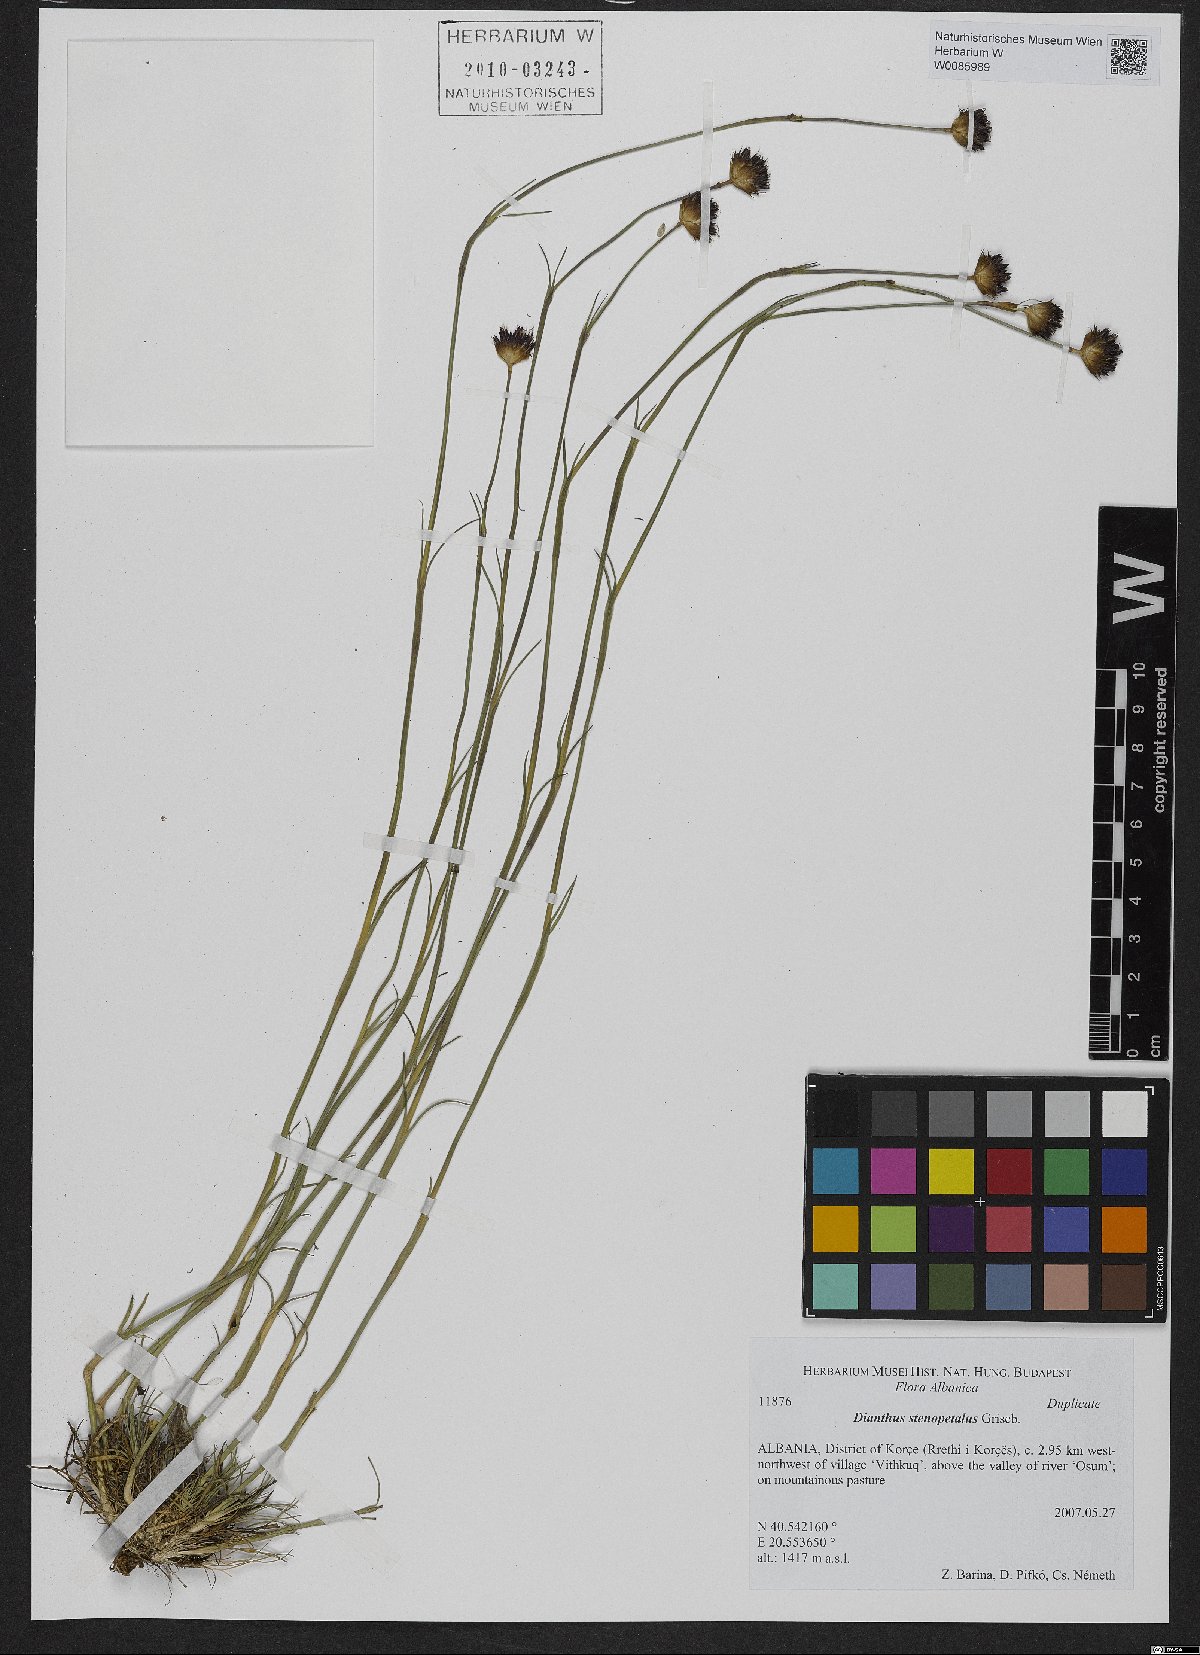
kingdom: Plantae
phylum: Tracheophyta
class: Magnoliopsida
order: Caryophyllales
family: Caryophyllaceae
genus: Dianthus
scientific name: Dianthus stenopetalus
